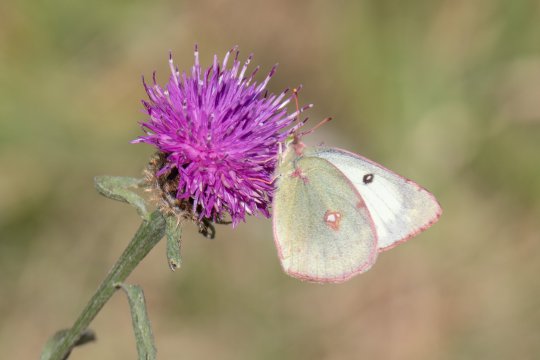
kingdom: Animalia
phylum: Arthropoda
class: Insecta
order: Lepidoptera
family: Pieridae
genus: Colias
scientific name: Colias philodice
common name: Clouded Sulphur
